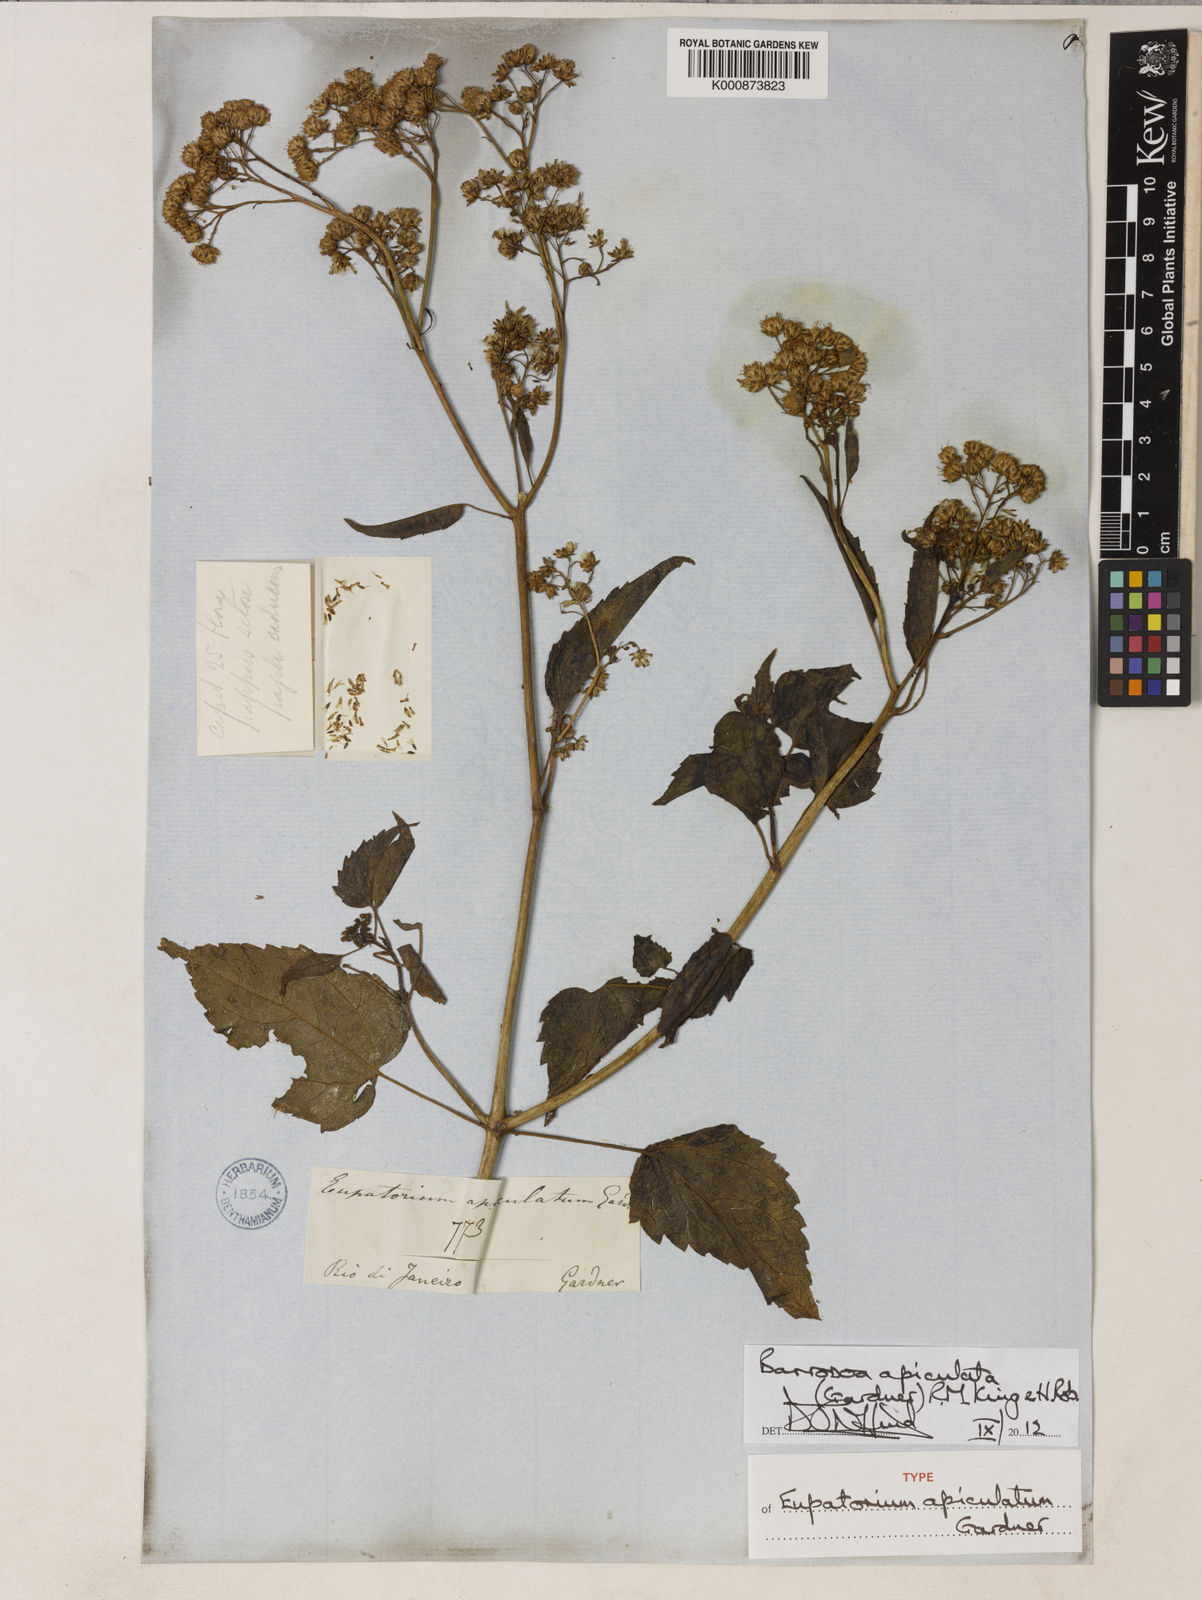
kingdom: Plantae
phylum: Tracheophyta
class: Magnoliopsida
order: Asterales
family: Asteraceae
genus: Barrosoa
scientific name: Barrosoa apiculata
